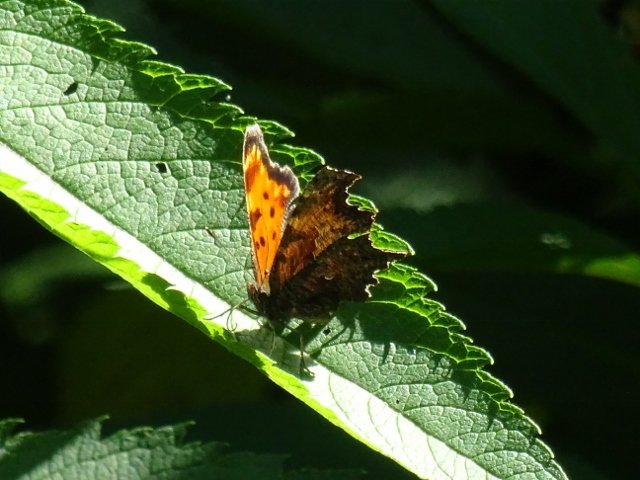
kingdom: Animalia
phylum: Arthropoda
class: Insecta
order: Lepidoptera
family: Nymphalidae
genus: Polygonia
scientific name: Polygonia progne
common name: Gray Comma
